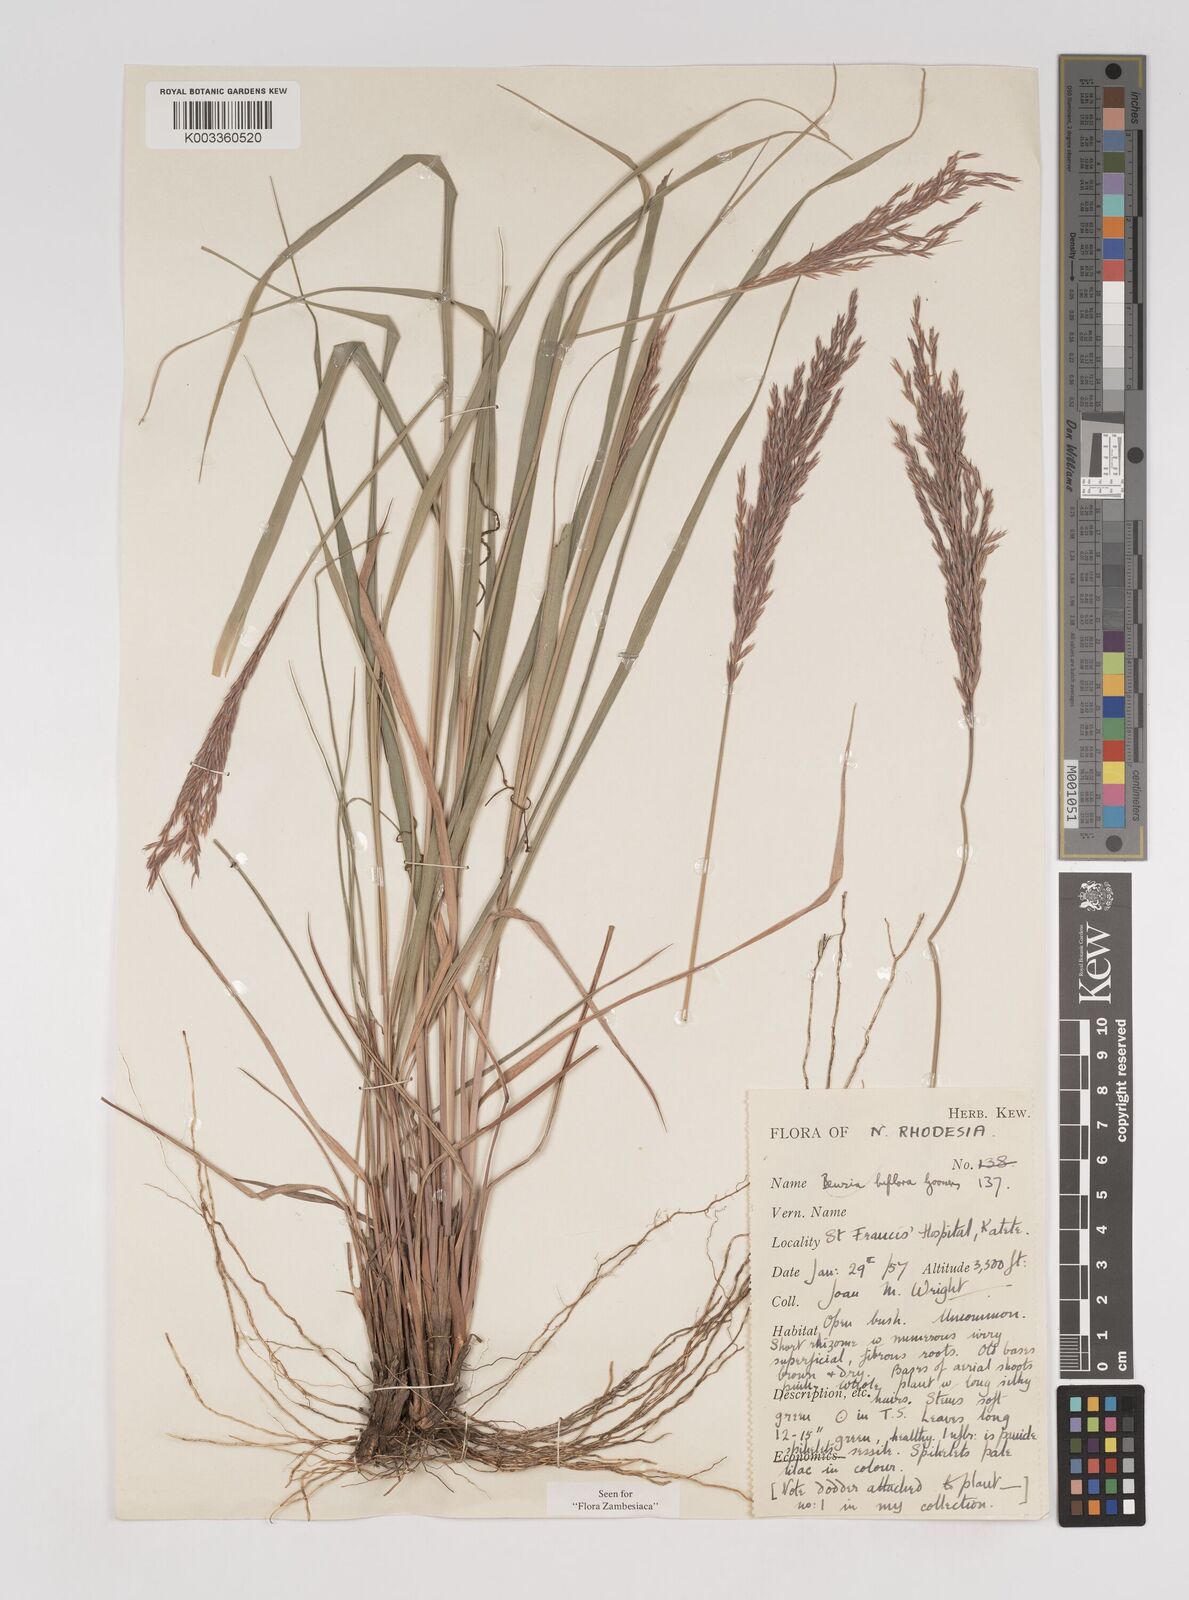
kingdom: Plantae
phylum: Tracheophyta
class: Liliopsida
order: Poales
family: Poaceae
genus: Bewsia
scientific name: Bewsia biflora
